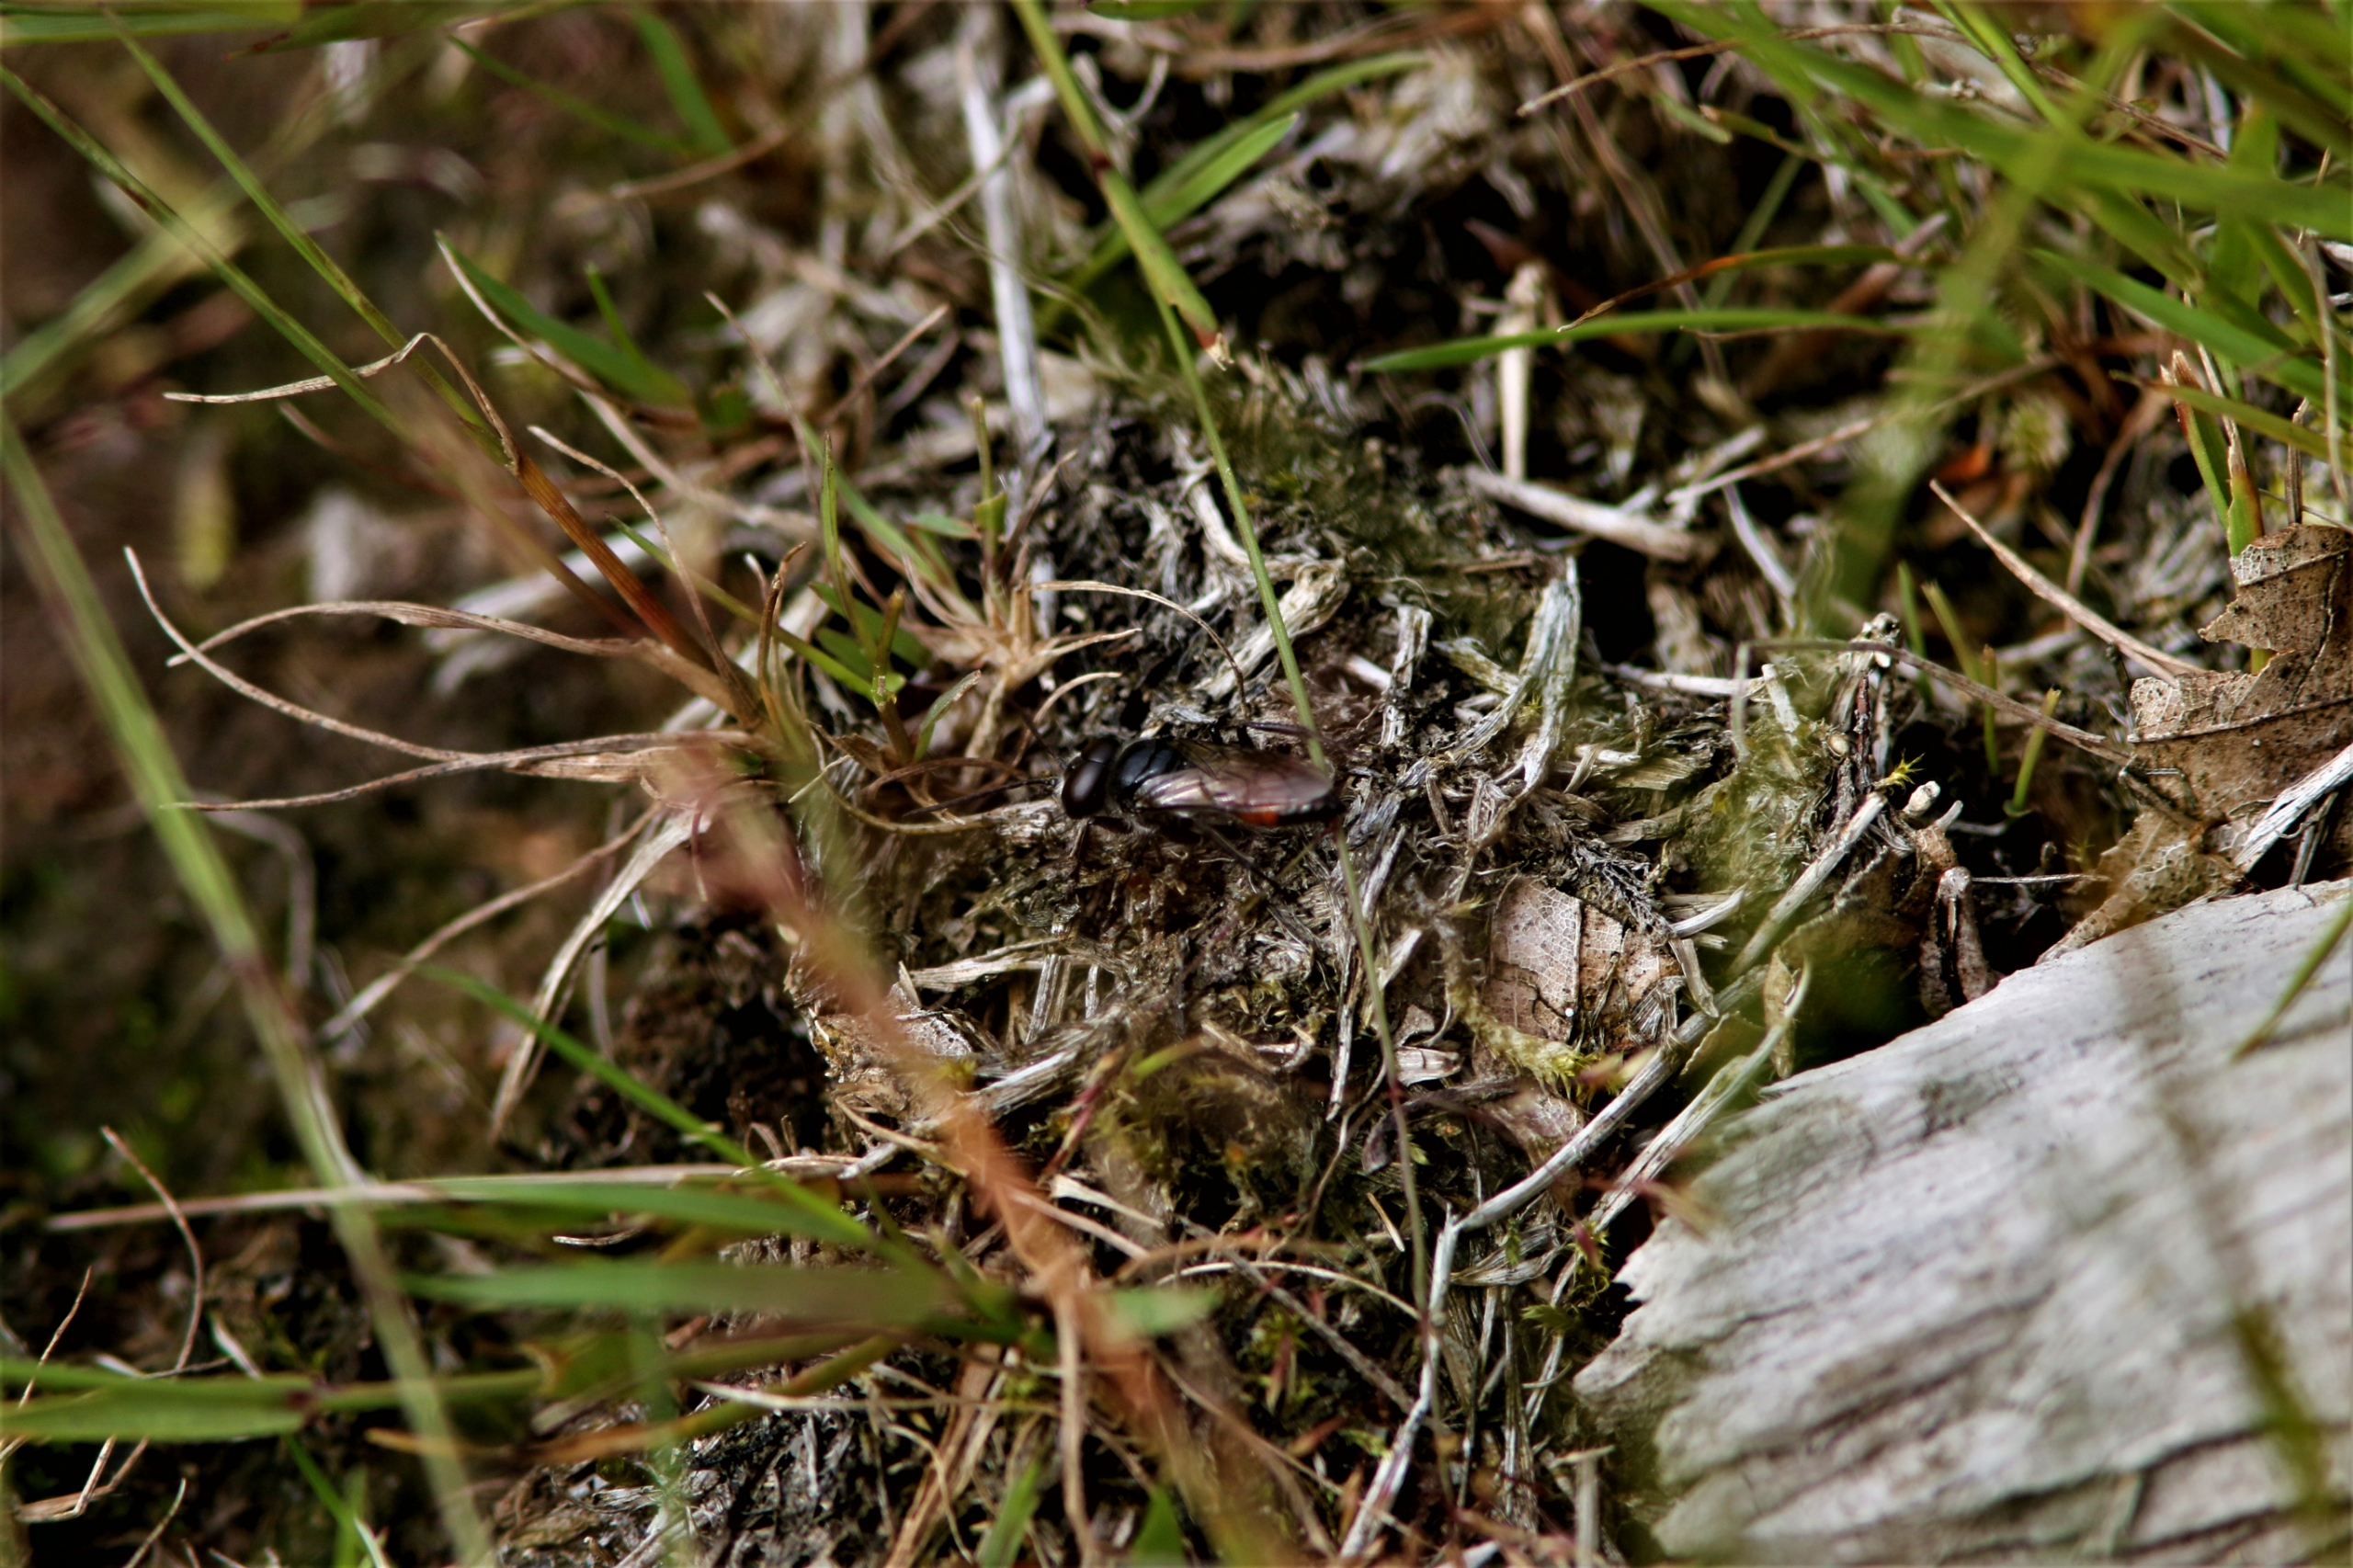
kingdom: Animalia
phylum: Arthropoda
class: Insecta
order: Hymenoptera
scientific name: Hymenoptera
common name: Årevinger
